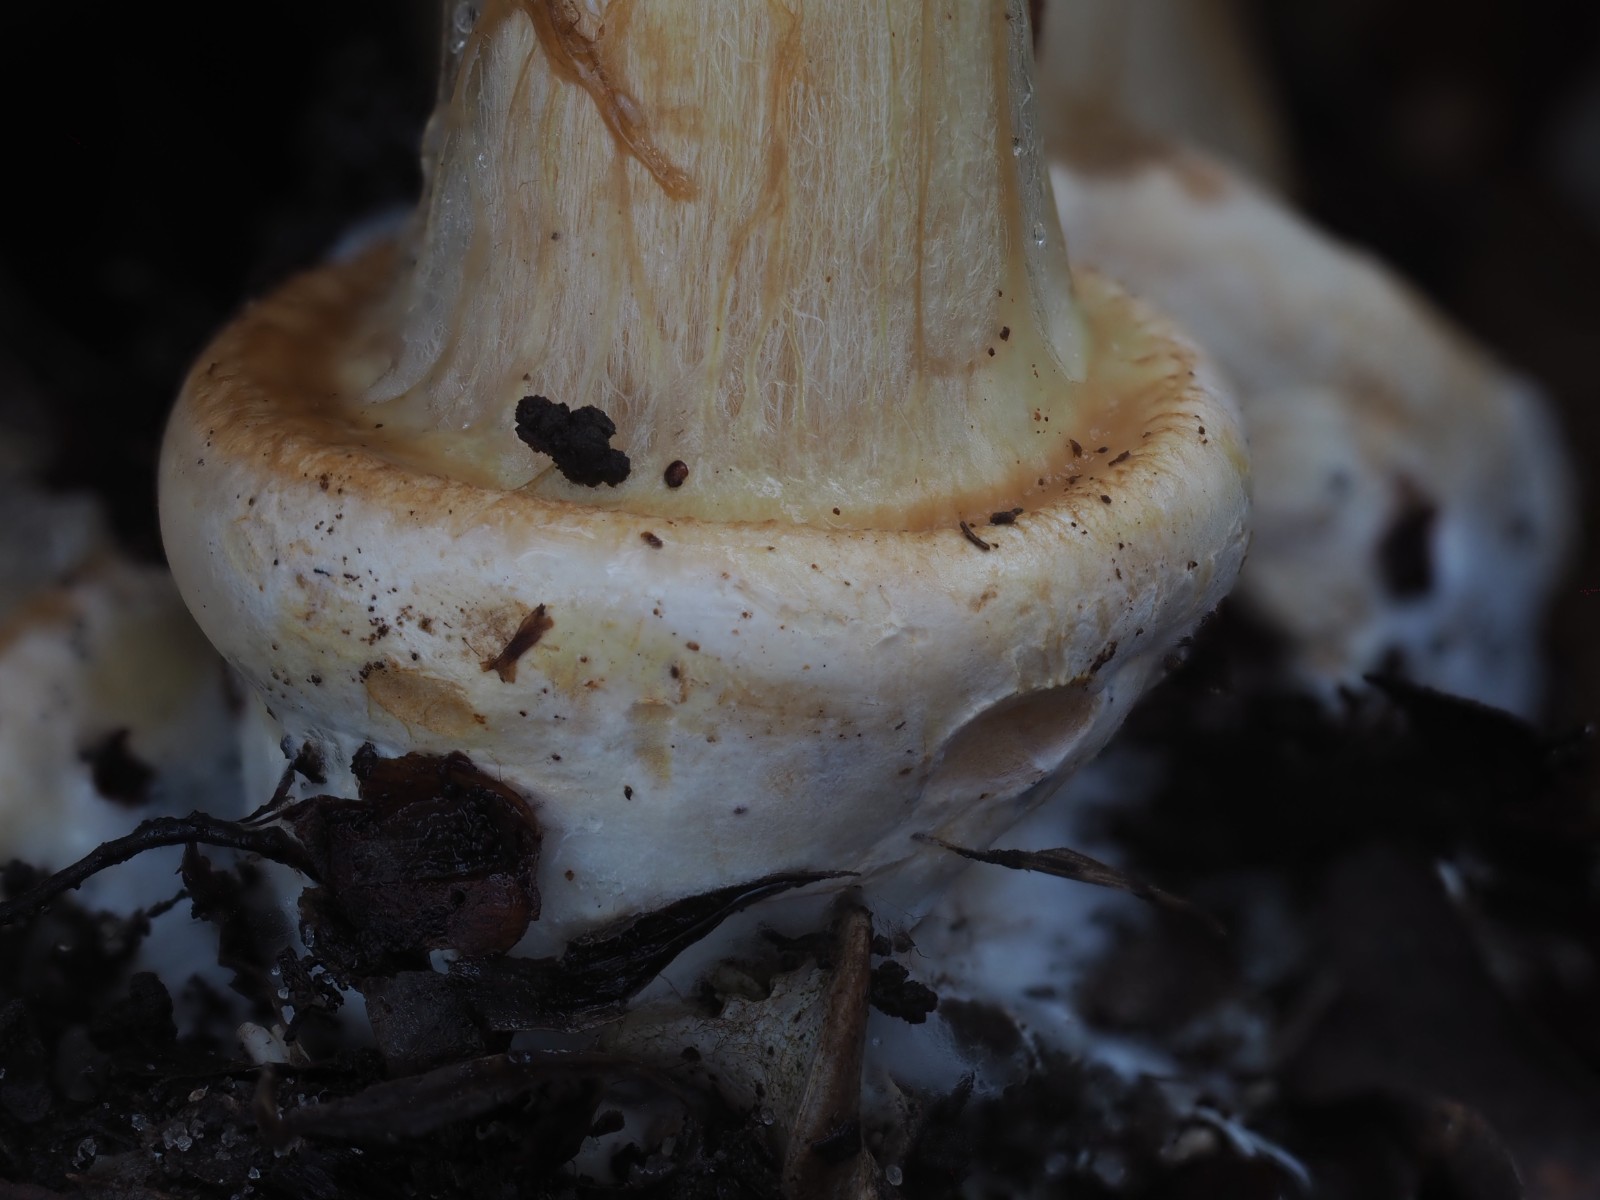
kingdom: Fungi
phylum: Basidiomycota
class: Agaricomycetes
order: Agaricales
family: Cortinariaceae
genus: Calonarius
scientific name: Calonarius humolens
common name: radise-slørhat
